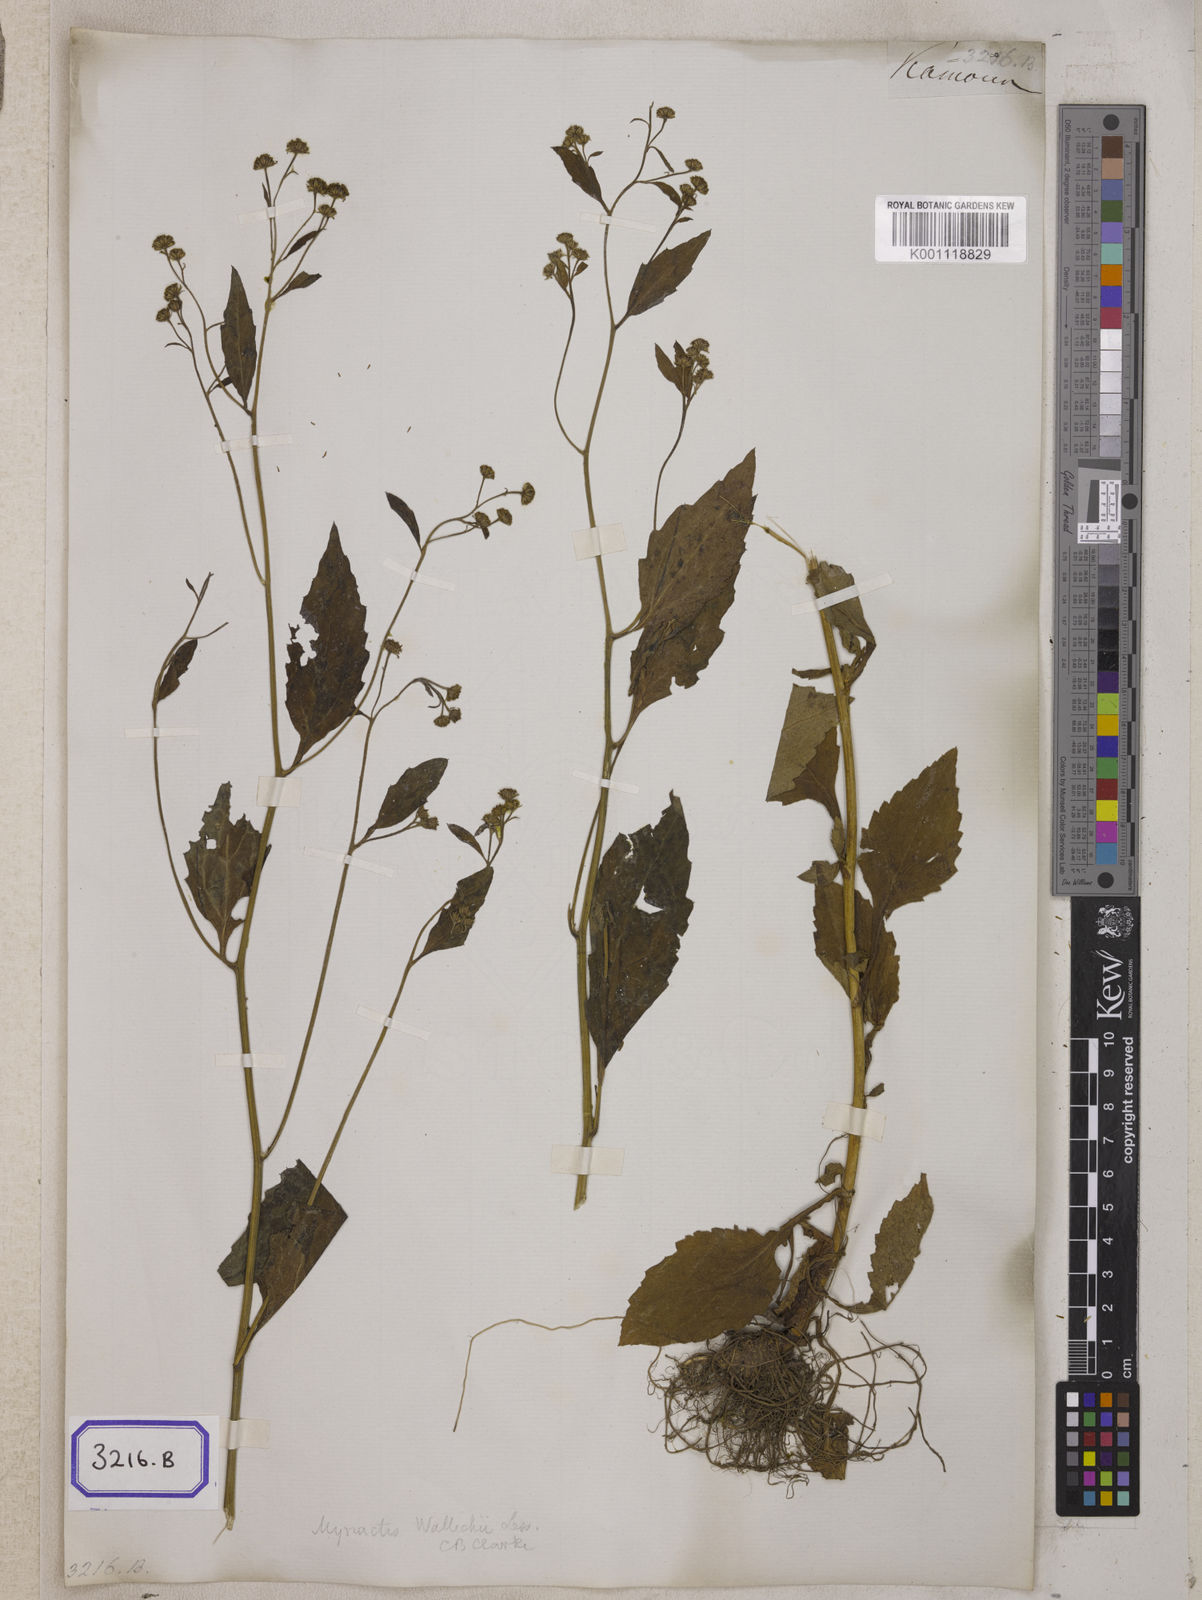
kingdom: Plantae
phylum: Tracheophyta
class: Magnoliopsida
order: Asterales
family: Asteraceae
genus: Myriactis
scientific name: Myriactis nepalensis
